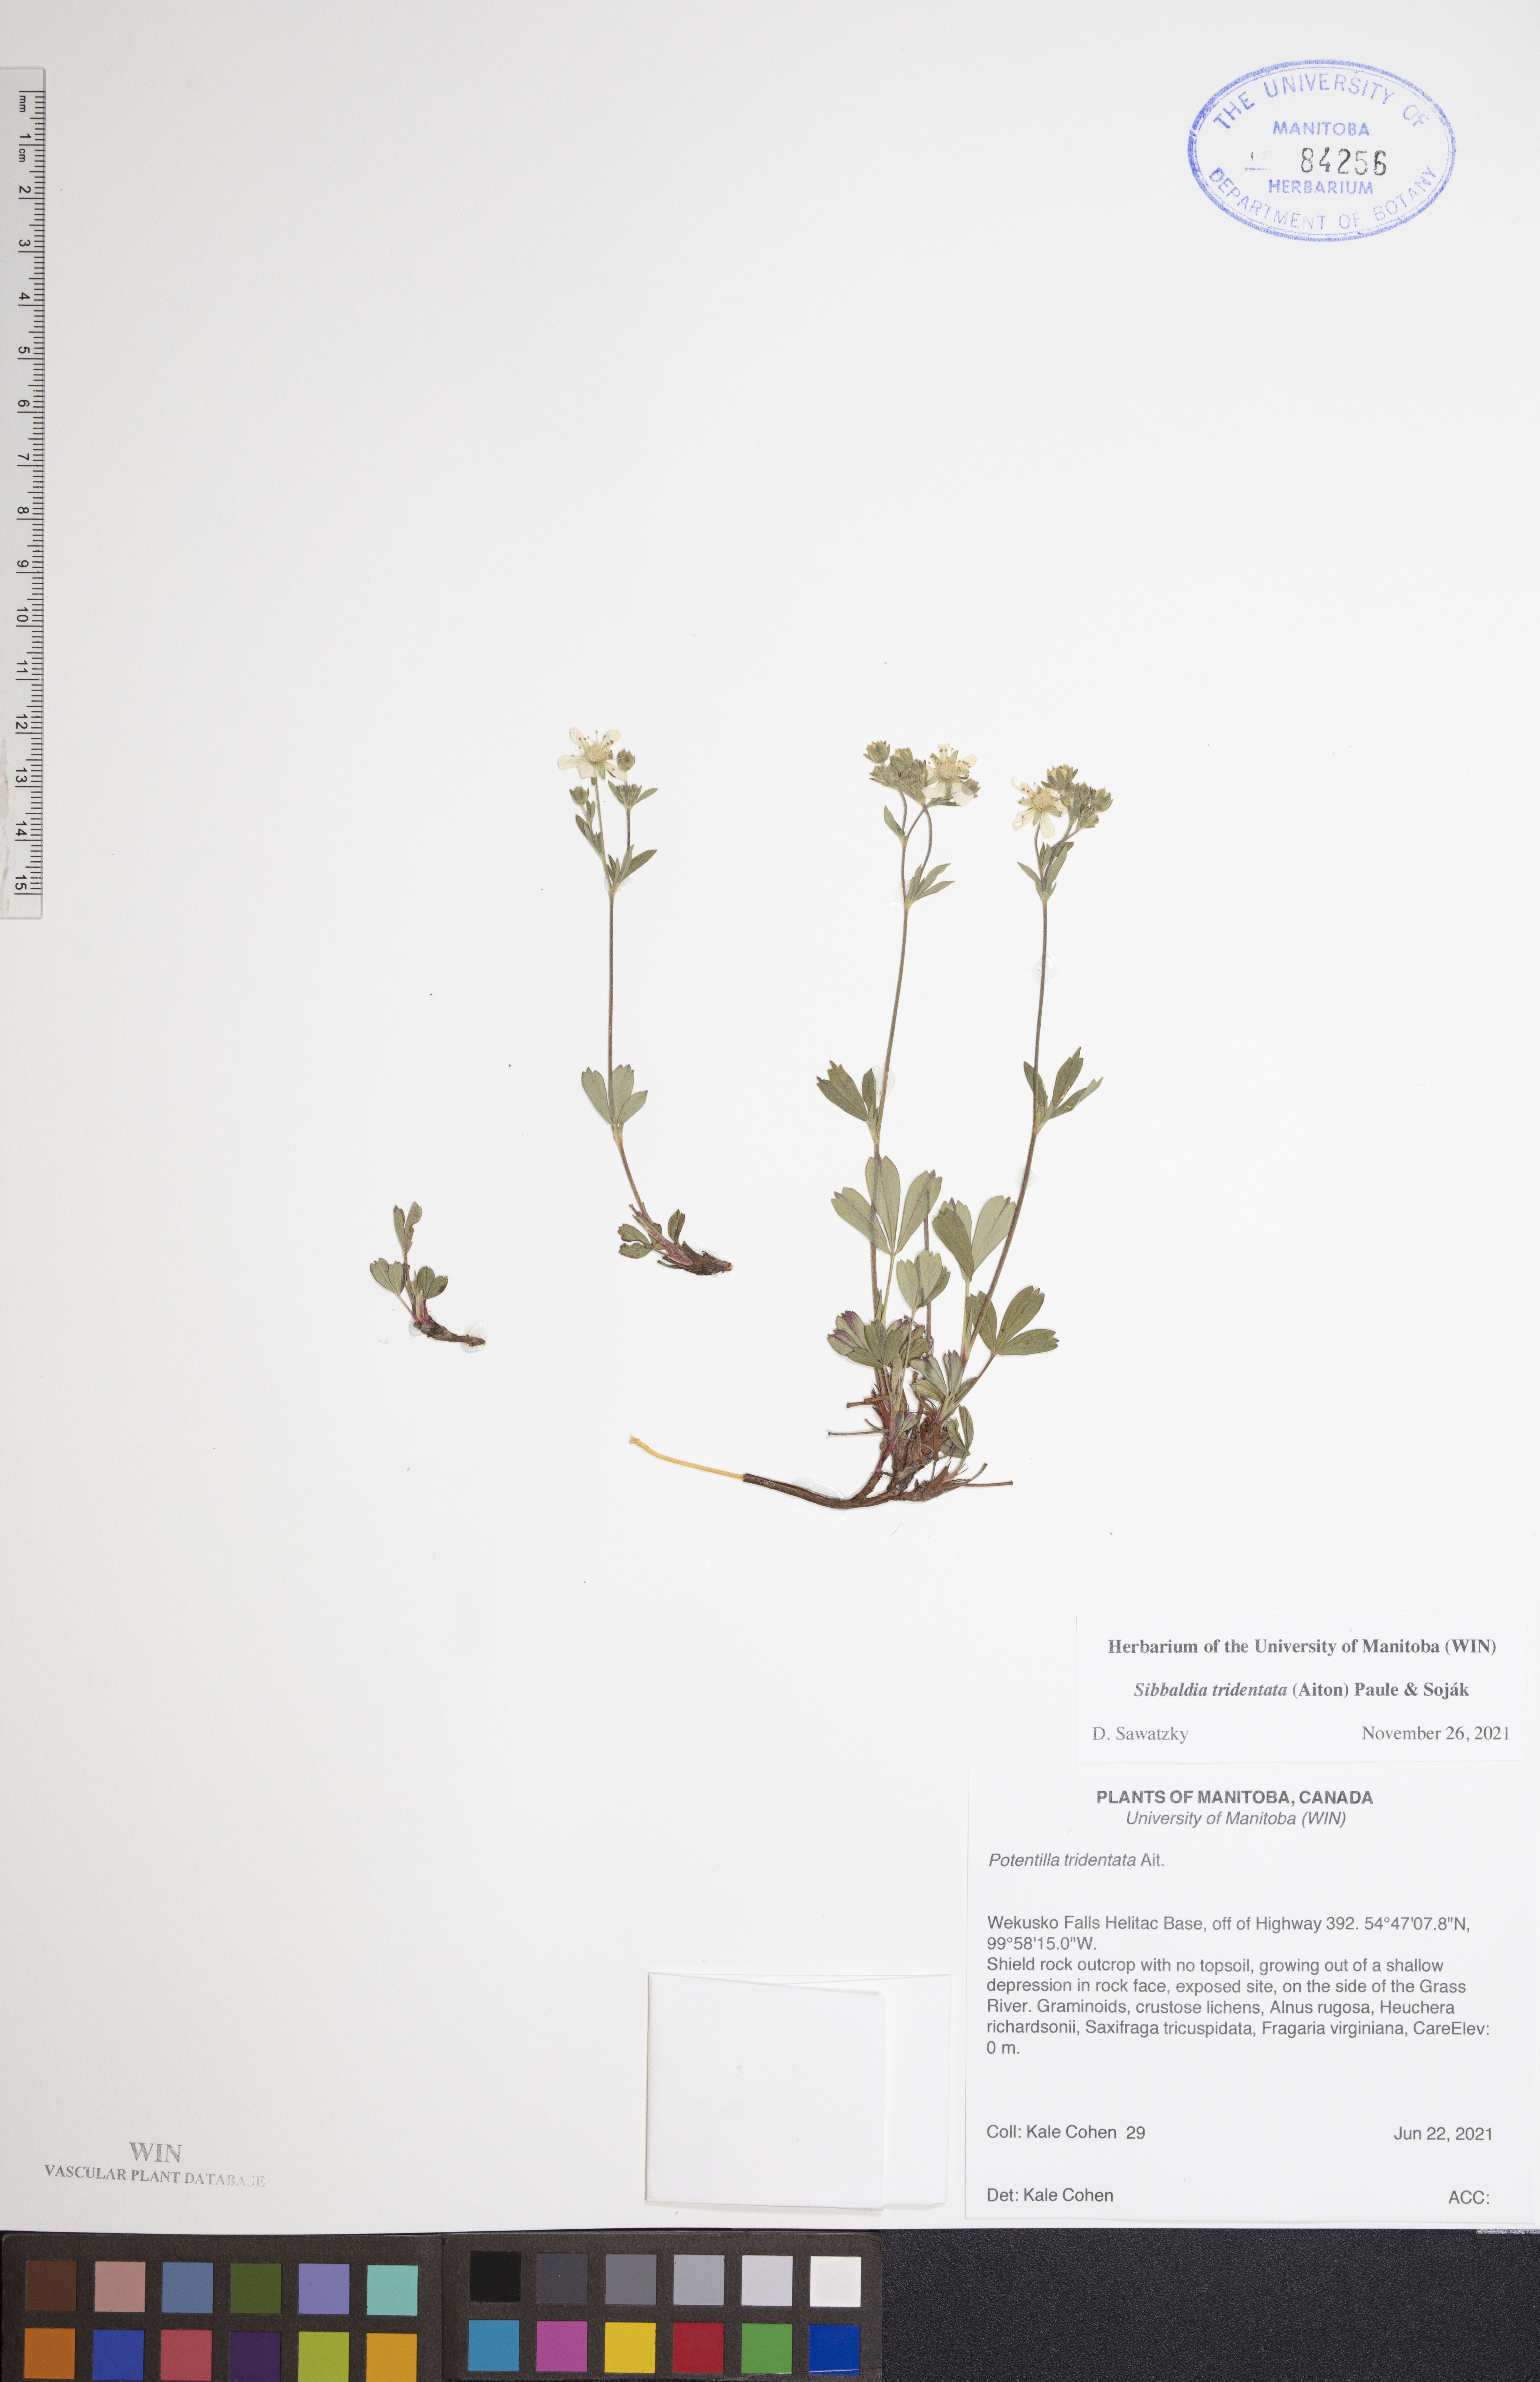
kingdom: Plantae
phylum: Tracheophyta
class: Magnoliopsida
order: Rosales
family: Rosaceae
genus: Sibbaldia
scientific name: Sibbaldia tridentata
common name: Three-toothed cinquefoil
